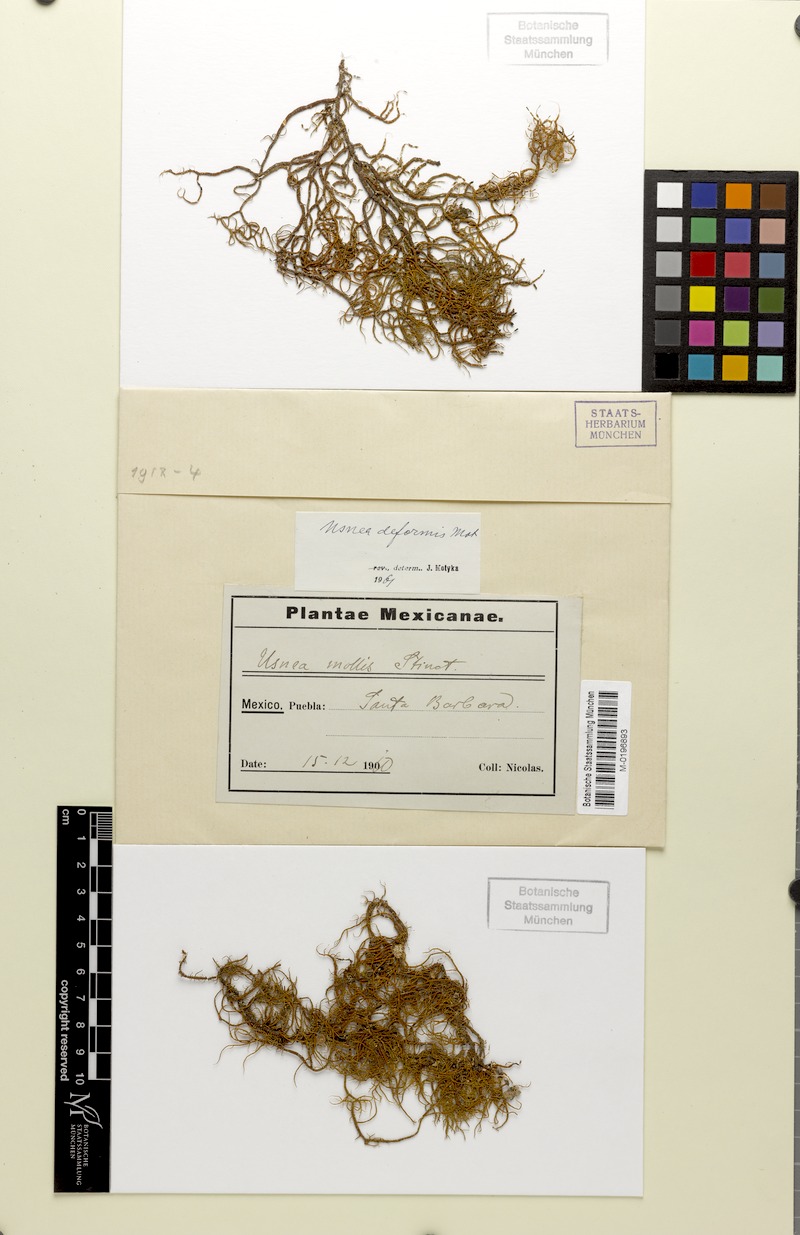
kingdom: Fungi
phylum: Ascomycota
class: Lecanoromycetes
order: Lecanorales
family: Parmeliaceae
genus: Usnea
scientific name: Usnea deformis
